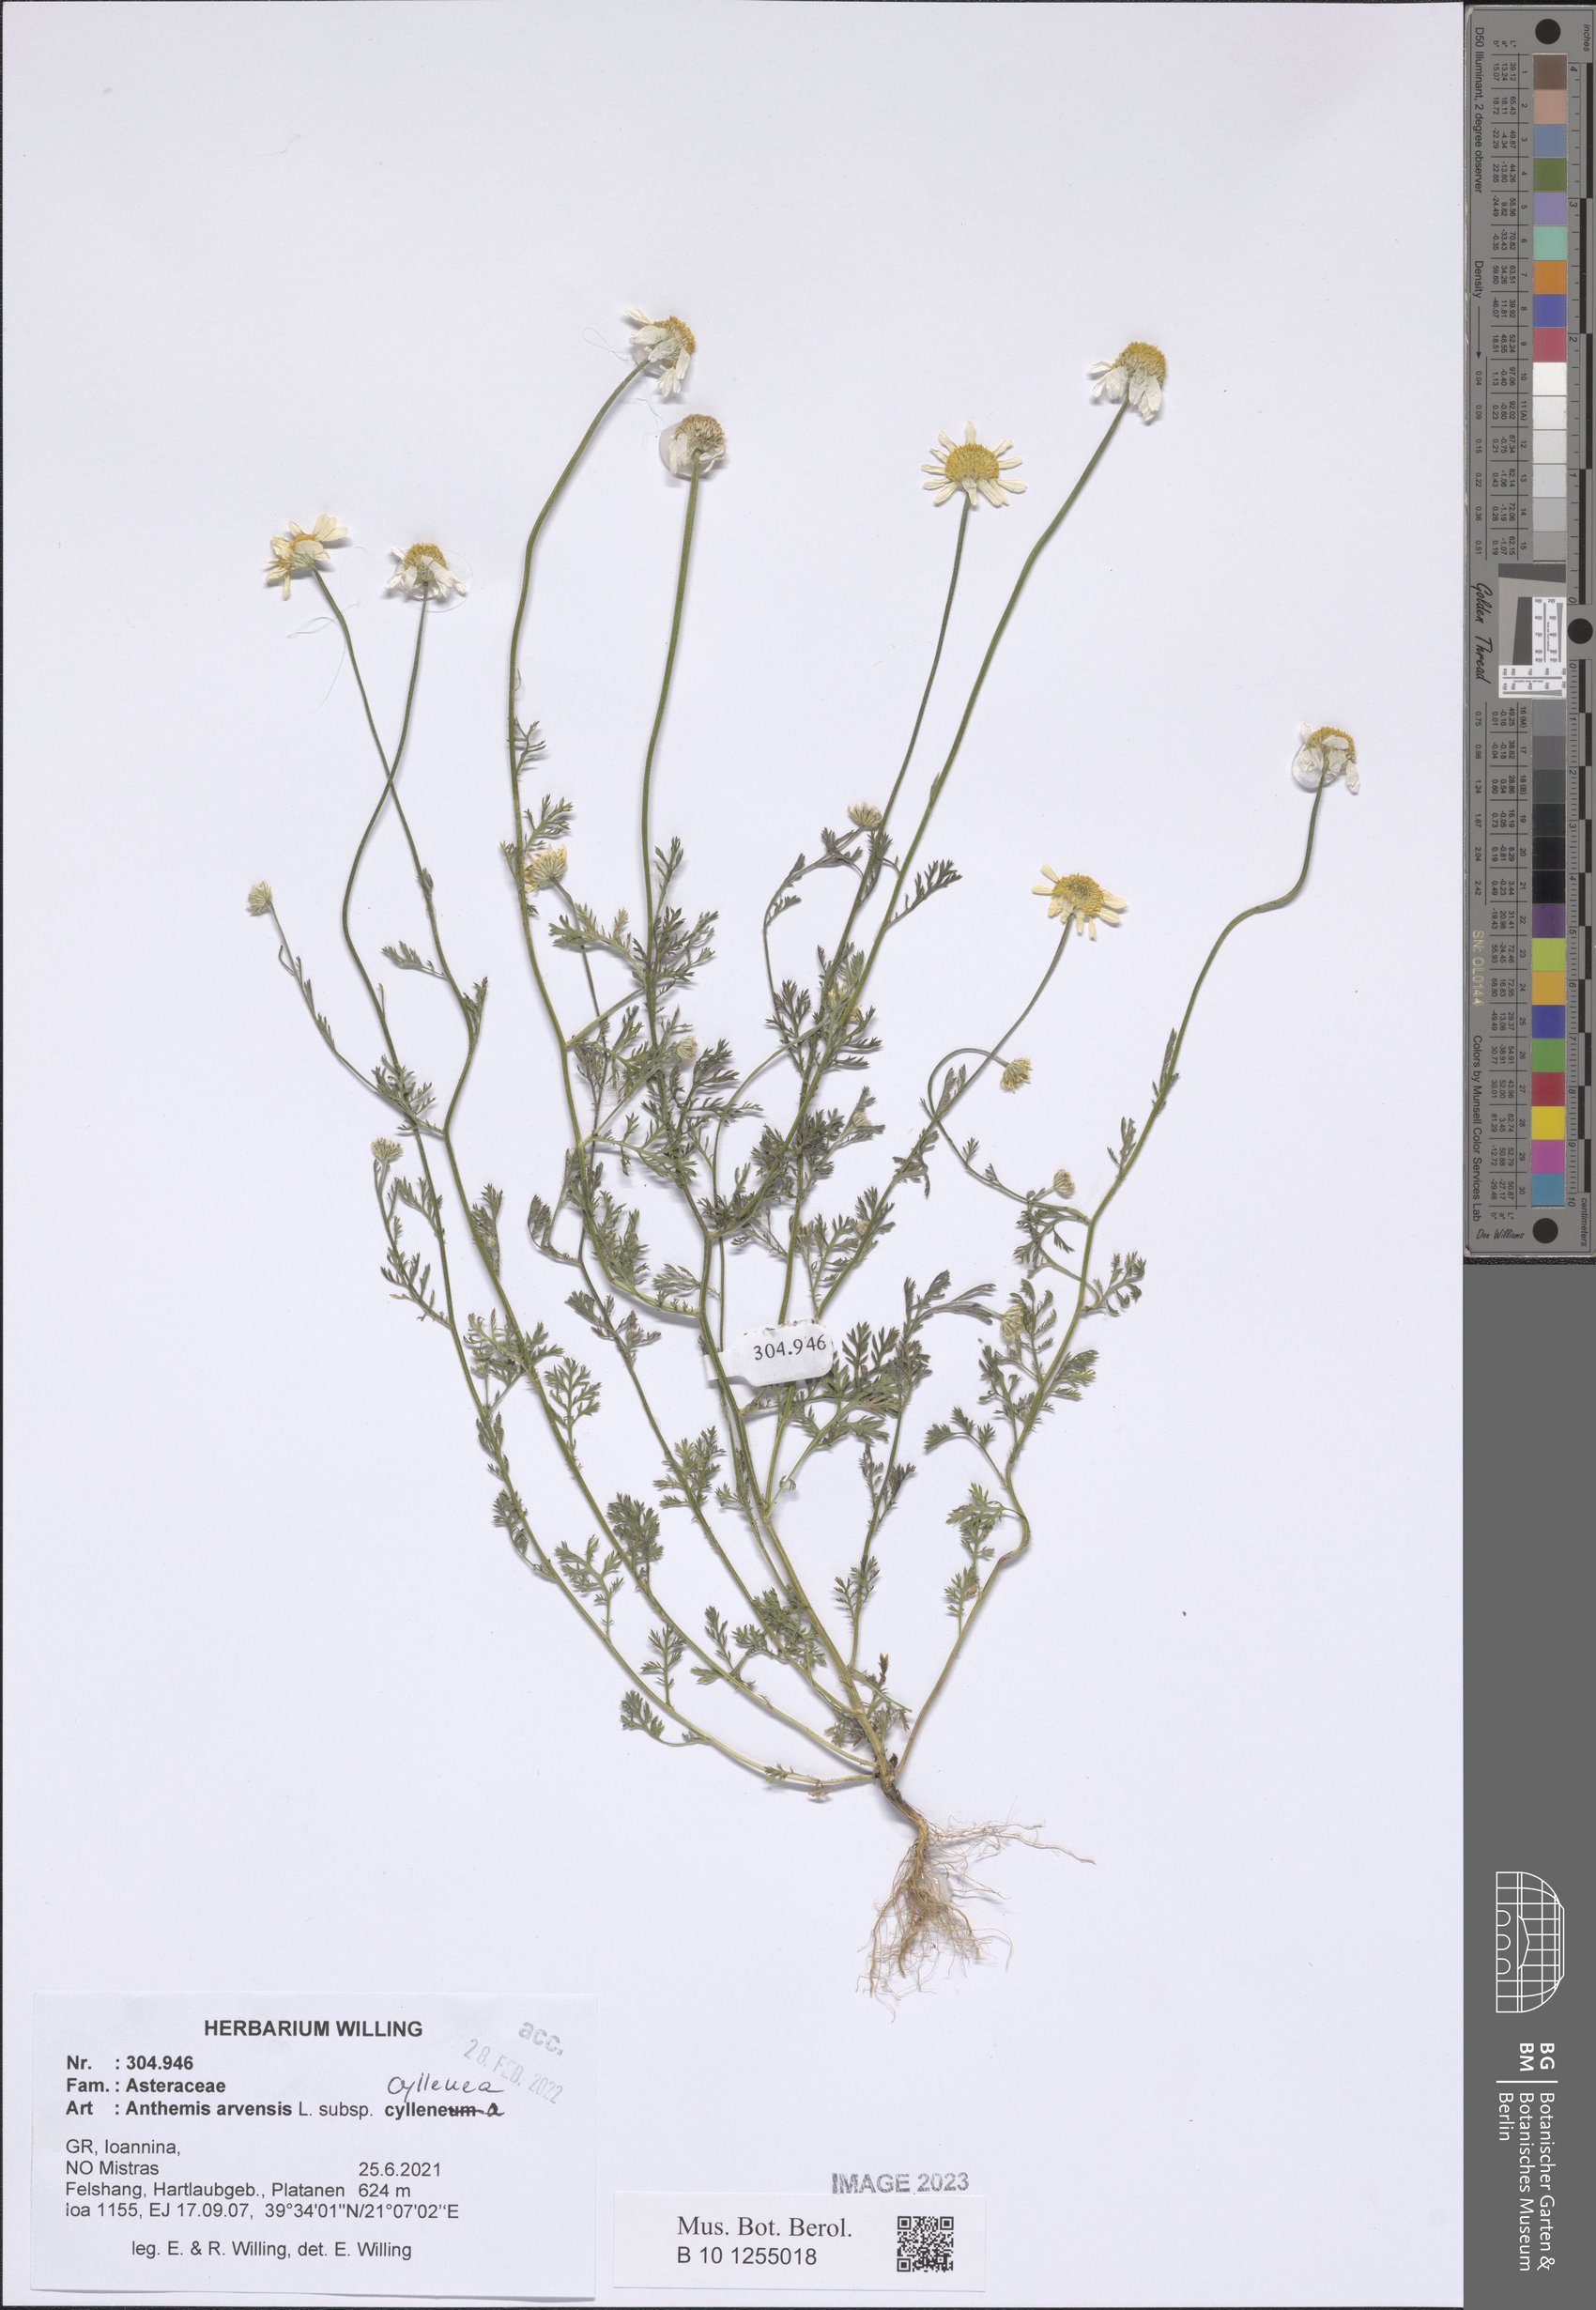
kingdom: Plantae
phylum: Tracheophyta
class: Magnoliopsida
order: Asterales
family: Asteraceae
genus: Anthemis
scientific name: Anthemis arvensis
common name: Corn chamomile
